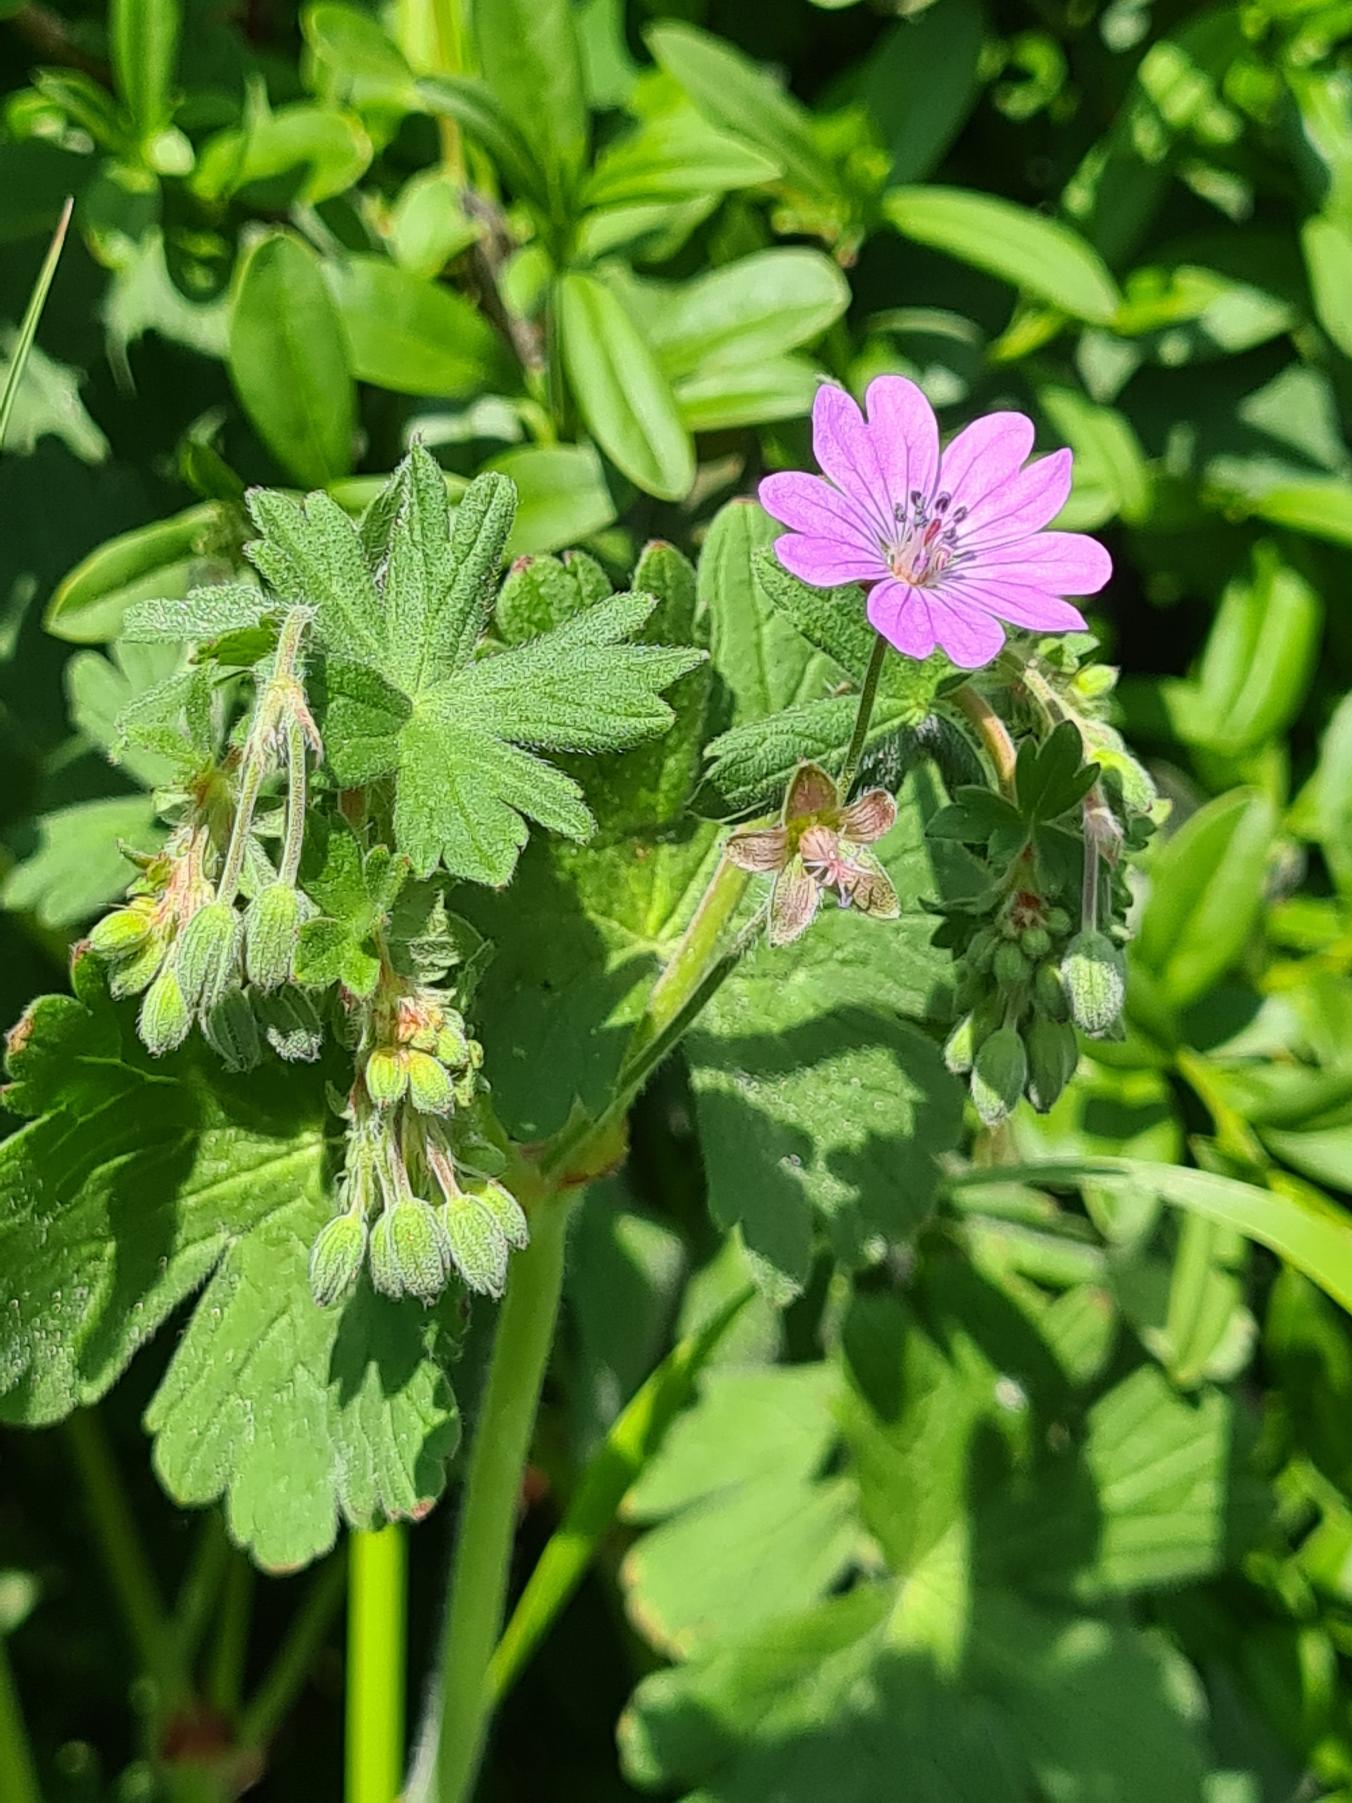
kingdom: Plantae
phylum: Tracheophyta
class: Magnoliopsida
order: Geraniales
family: Geraniaceae
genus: Geranium
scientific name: Geranium pyrenaicum
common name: Pyrenæisk storkenæb
